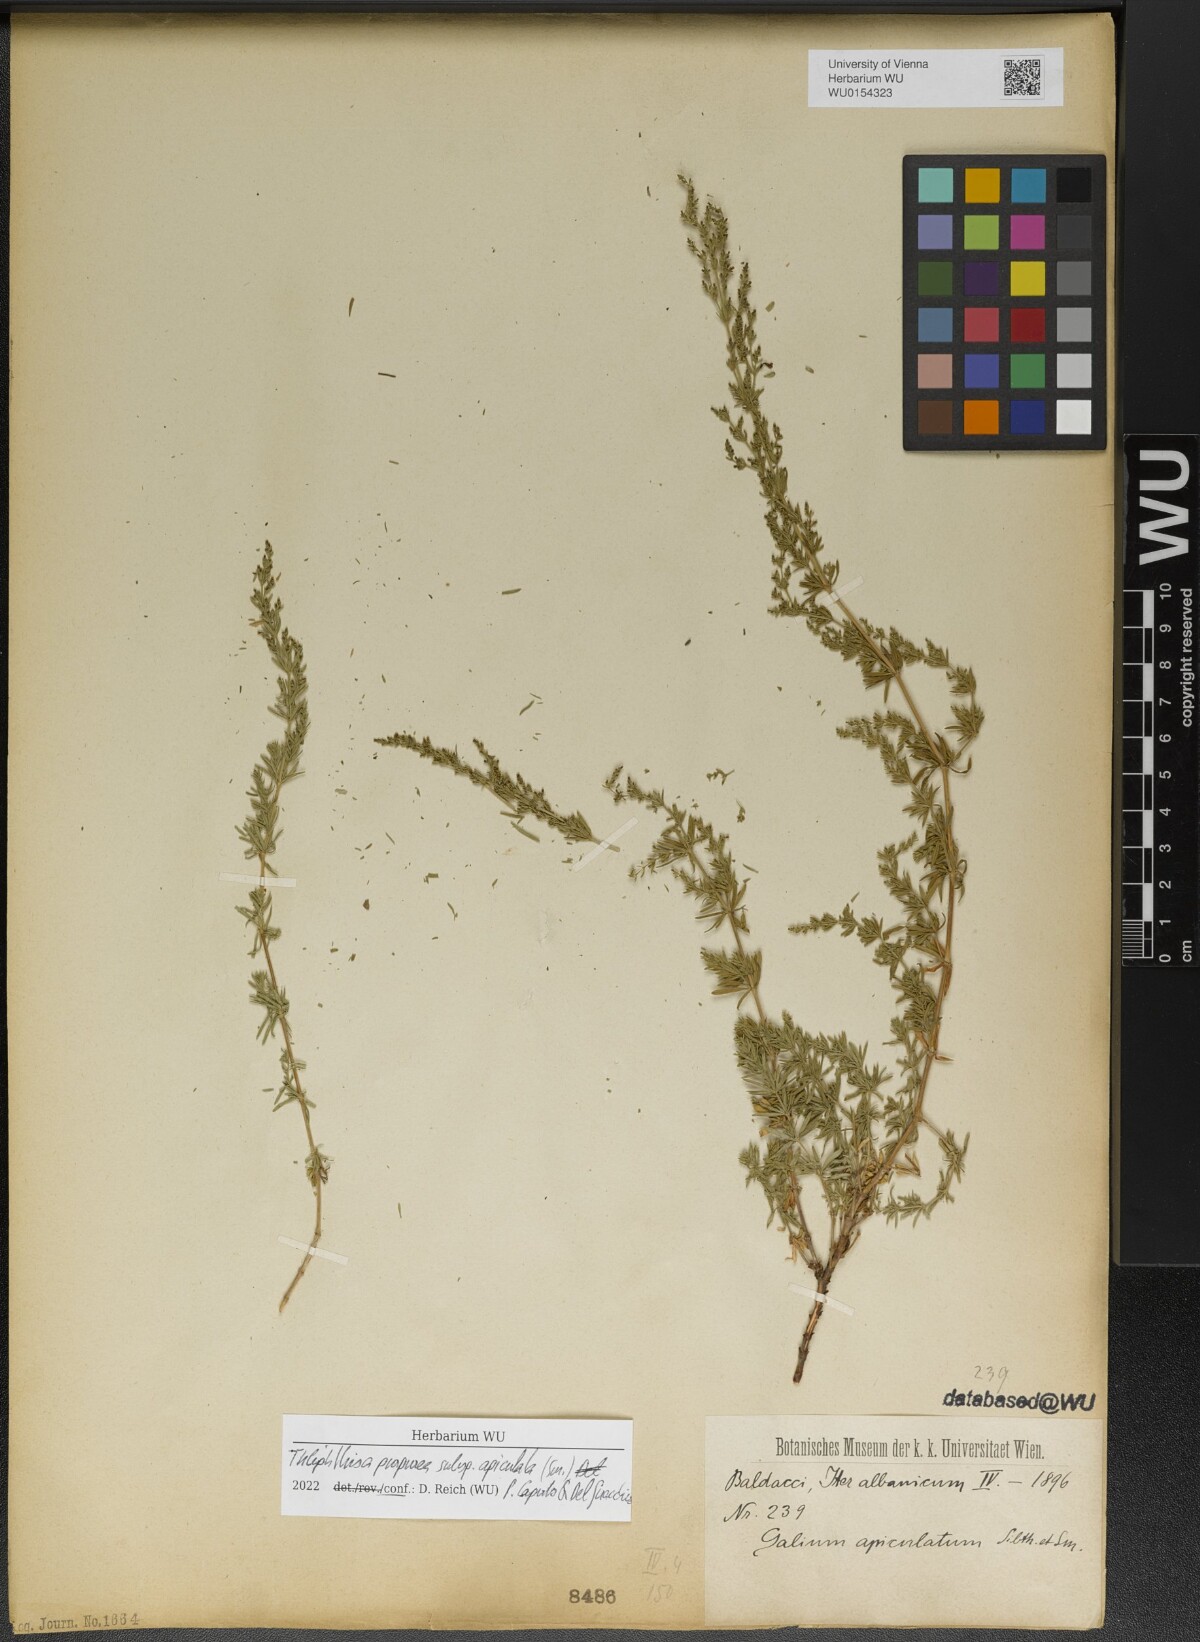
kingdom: Plantae
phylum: Tracheophyta
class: Magnoliopsida
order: Gentianales
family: Rubiaceae
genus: Thliphthisa
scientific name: Thliphthisa purpurea
